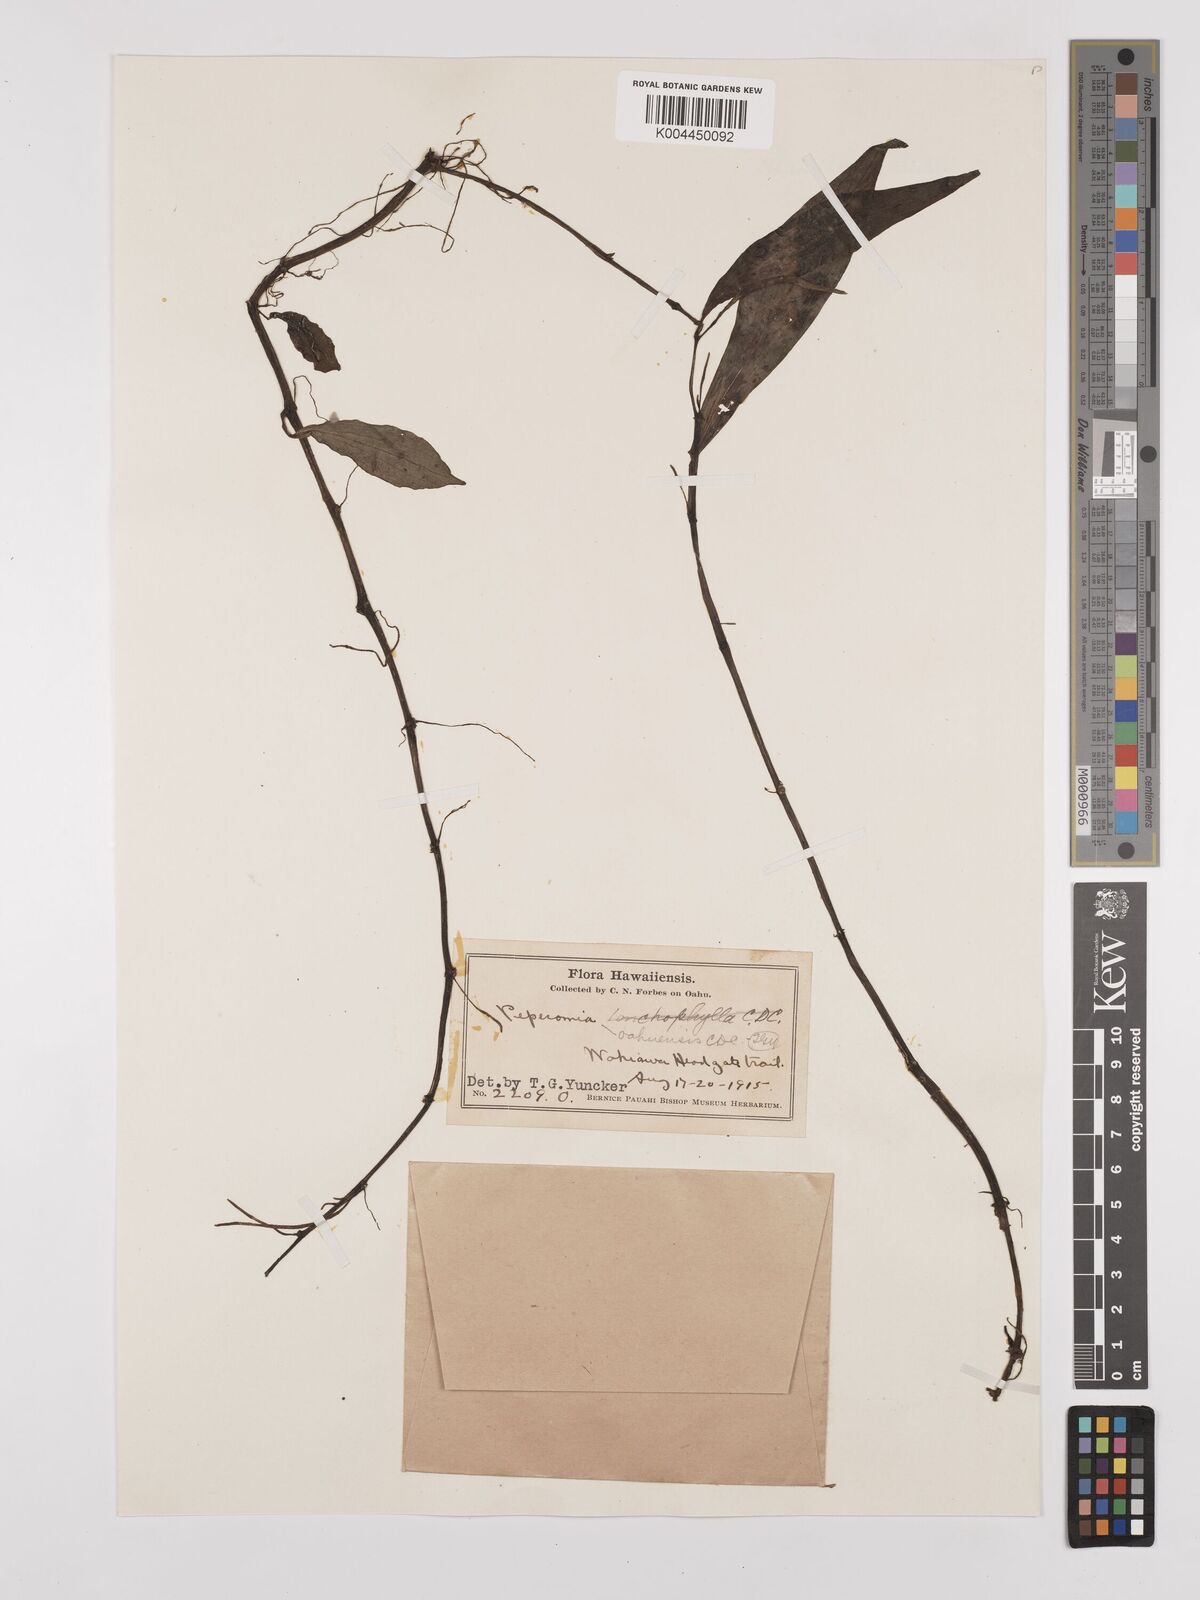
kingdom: Plantae
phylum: Tracheophyta
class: Magnoliopsida
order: Piperales
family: Piperaceae
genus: Peperomia
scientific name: Peperomia oahuensis
